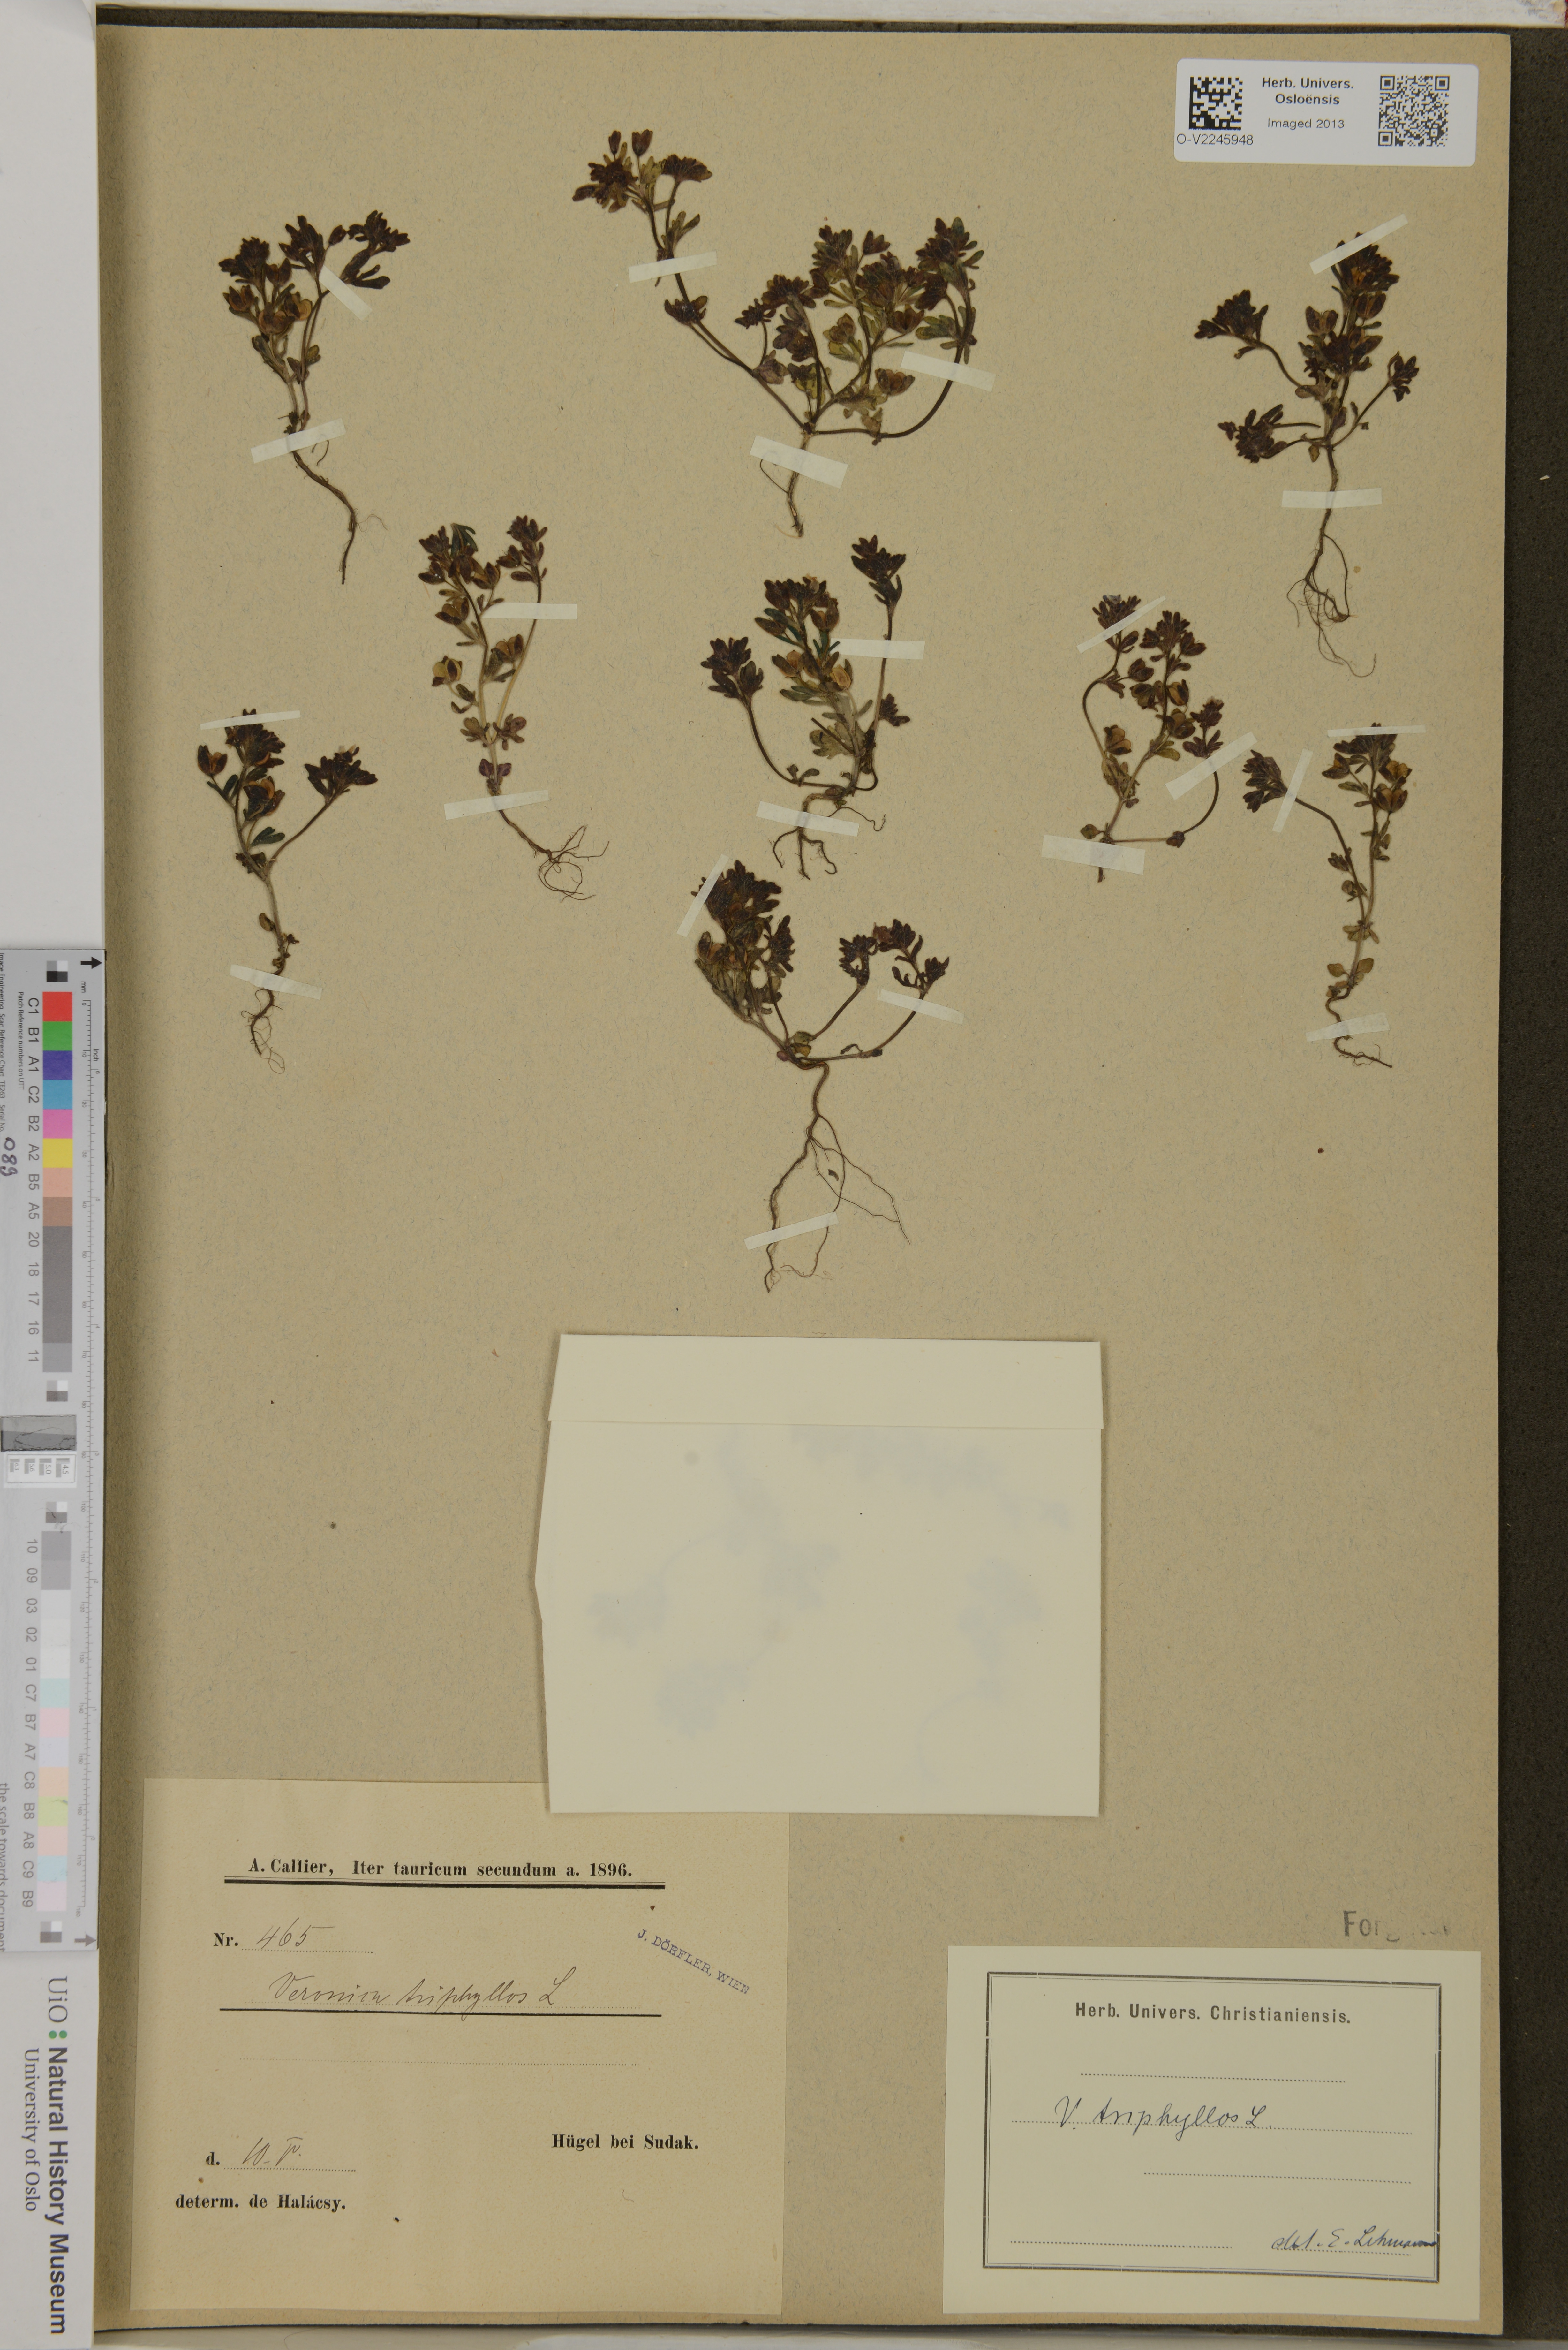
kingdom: Plantae
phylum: Tracheophyta
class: Magnoliopsida
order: Lamiales
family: Plantaginaceae
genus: Veronica
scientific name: Veronica triphyllos
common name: Fingered speedwell
